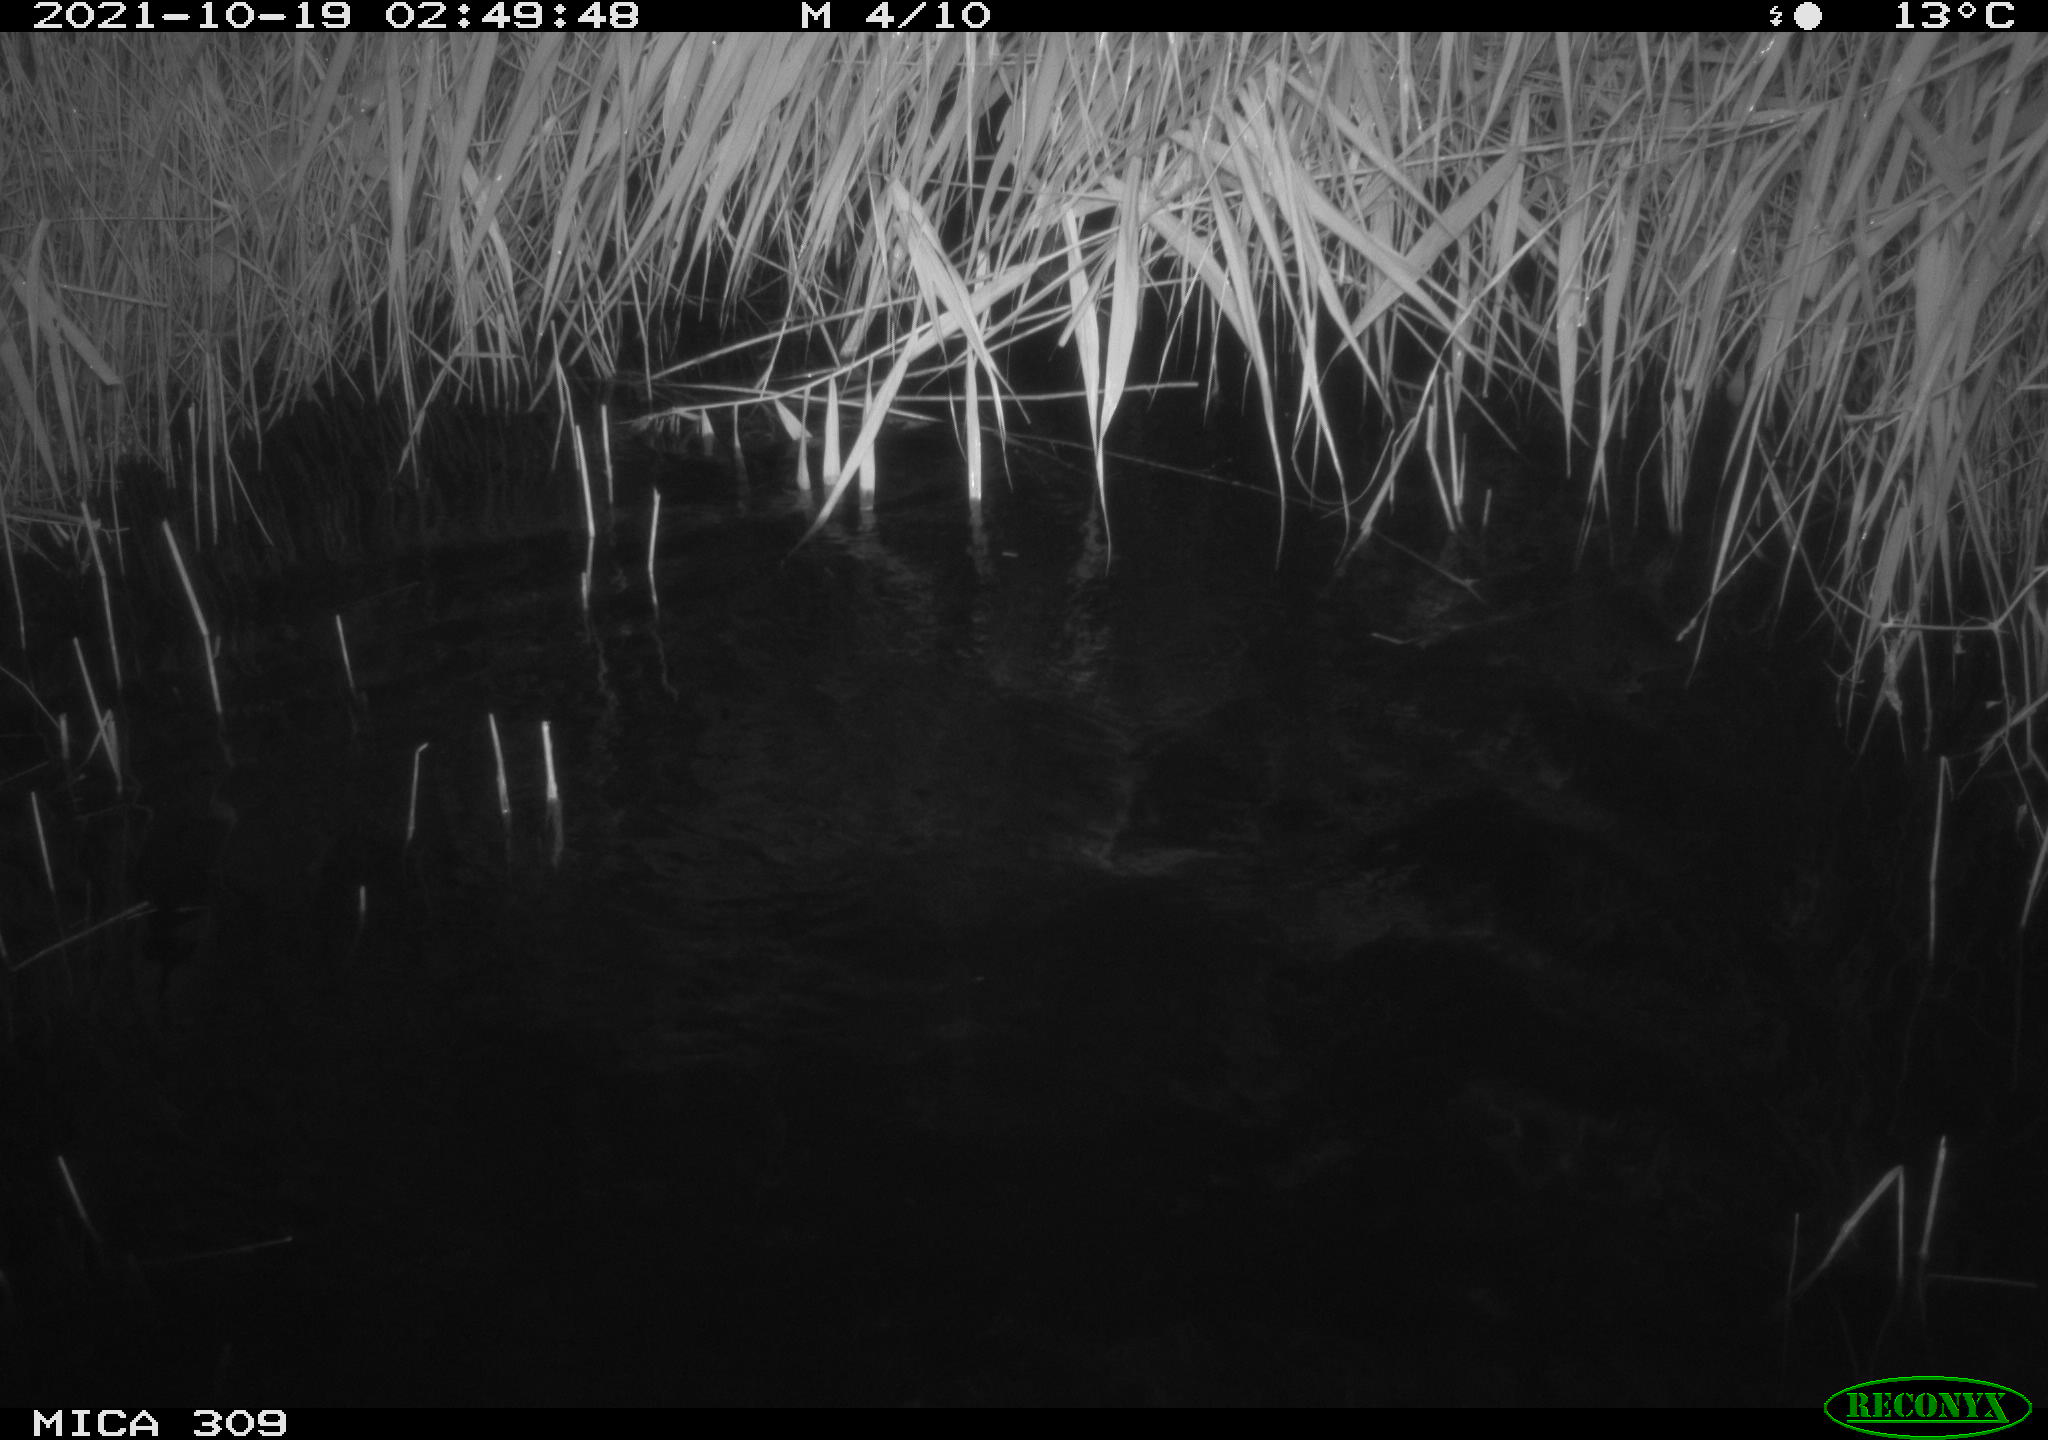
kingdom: Animalia
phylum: Chordata
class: Mammalia
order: Rodentia
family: Cricetidae
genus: Ondatra
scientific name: Ondatra zibethicus
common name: Muskrat
